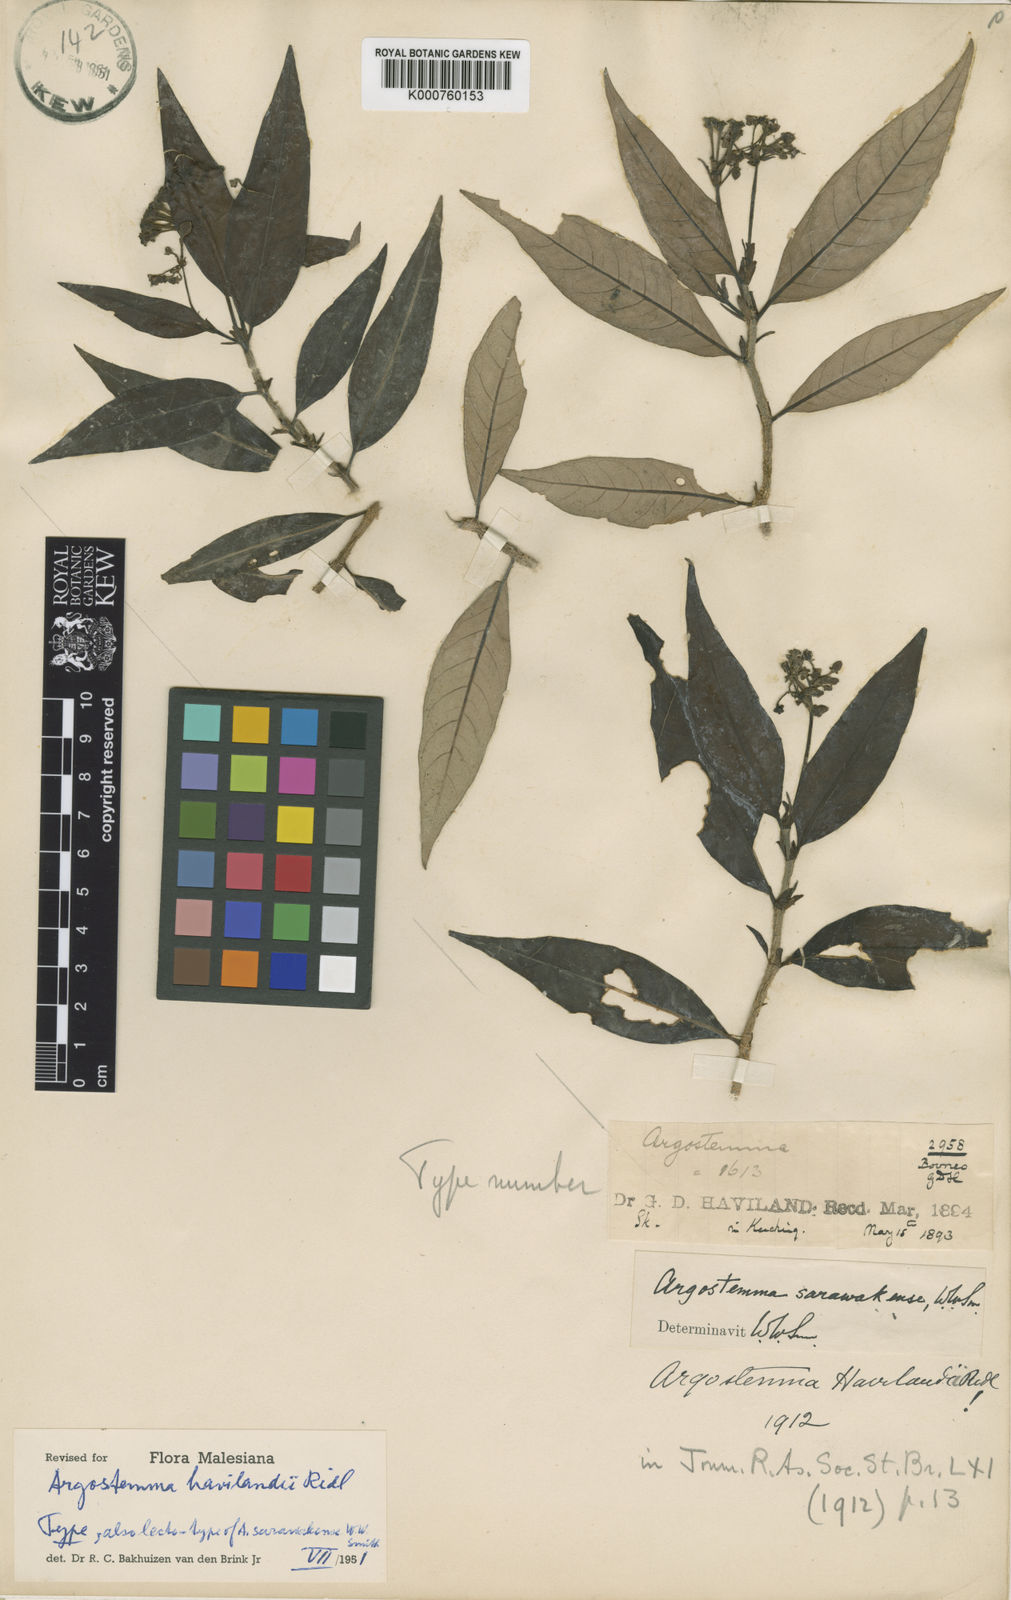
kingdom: Plantae
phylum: Tracheophyta
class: Magnoliopsida
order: Gentianales
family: Rubiaceae
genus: Argostemma
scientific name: Argostemma havilandii
